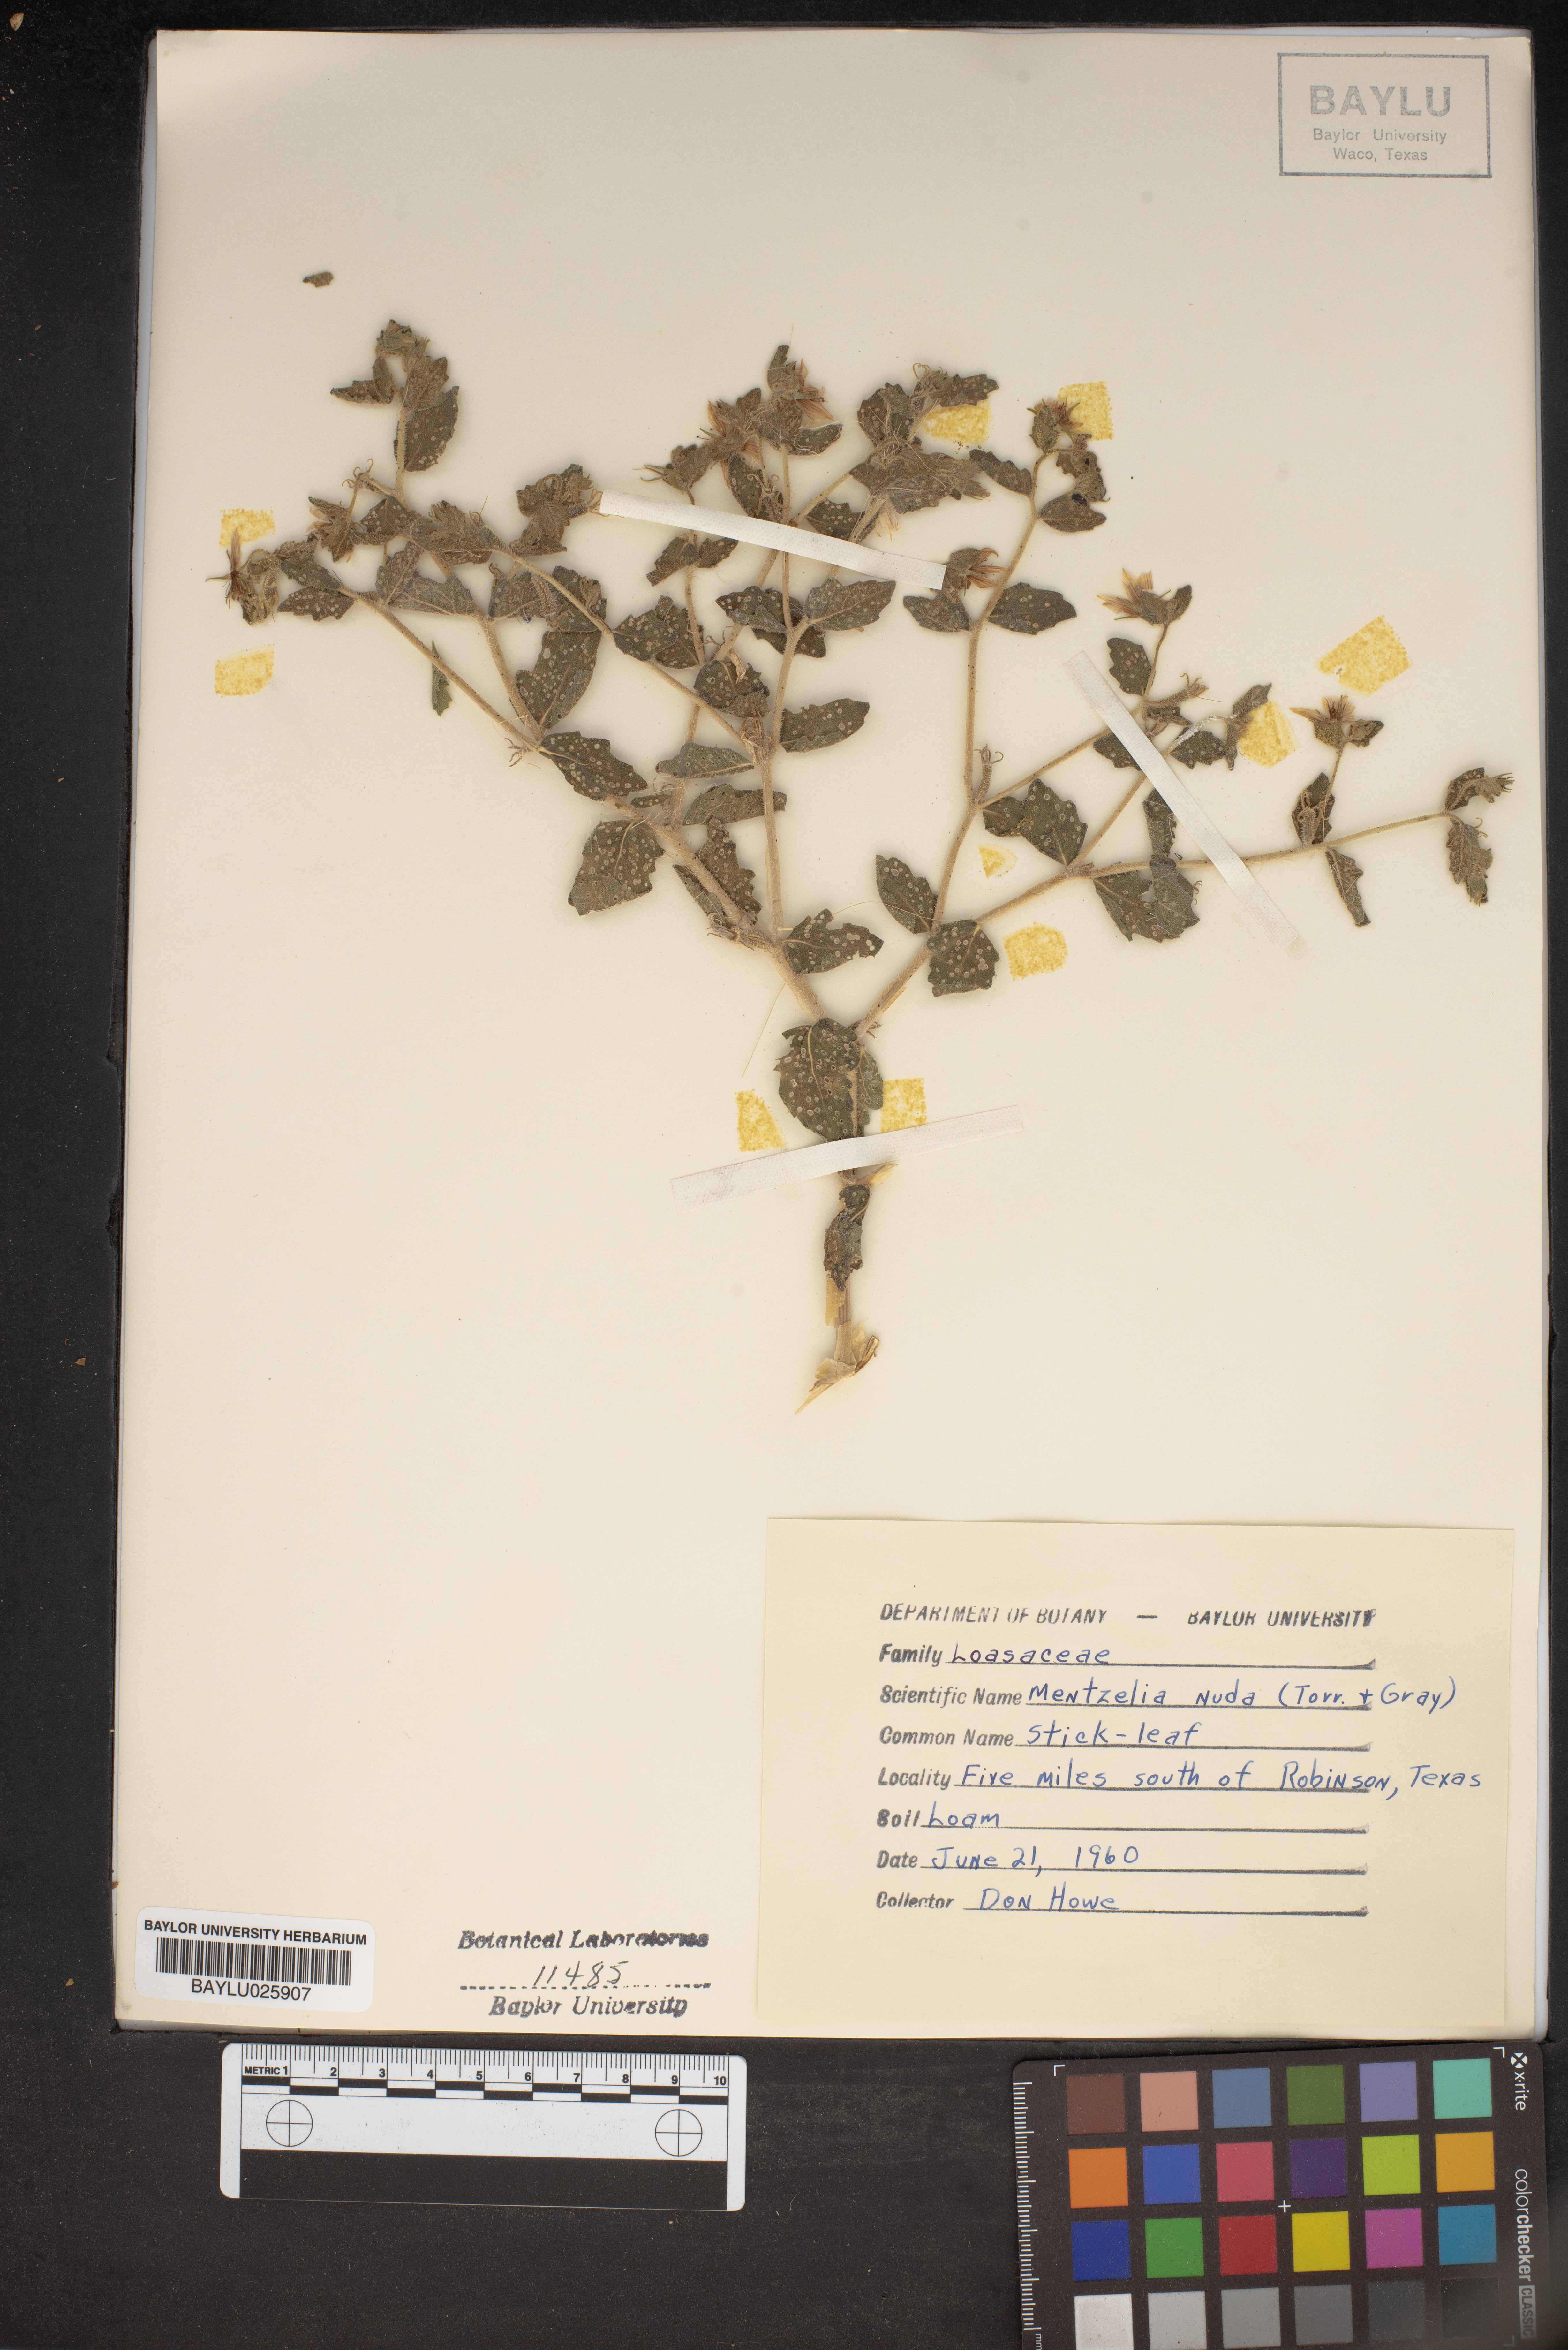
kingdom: Plantae
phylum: Tracheophyta
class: Magnoliopsida
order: Cornales
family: Loasaceae
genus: Mentzelia
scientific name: Mentzelia nuda
